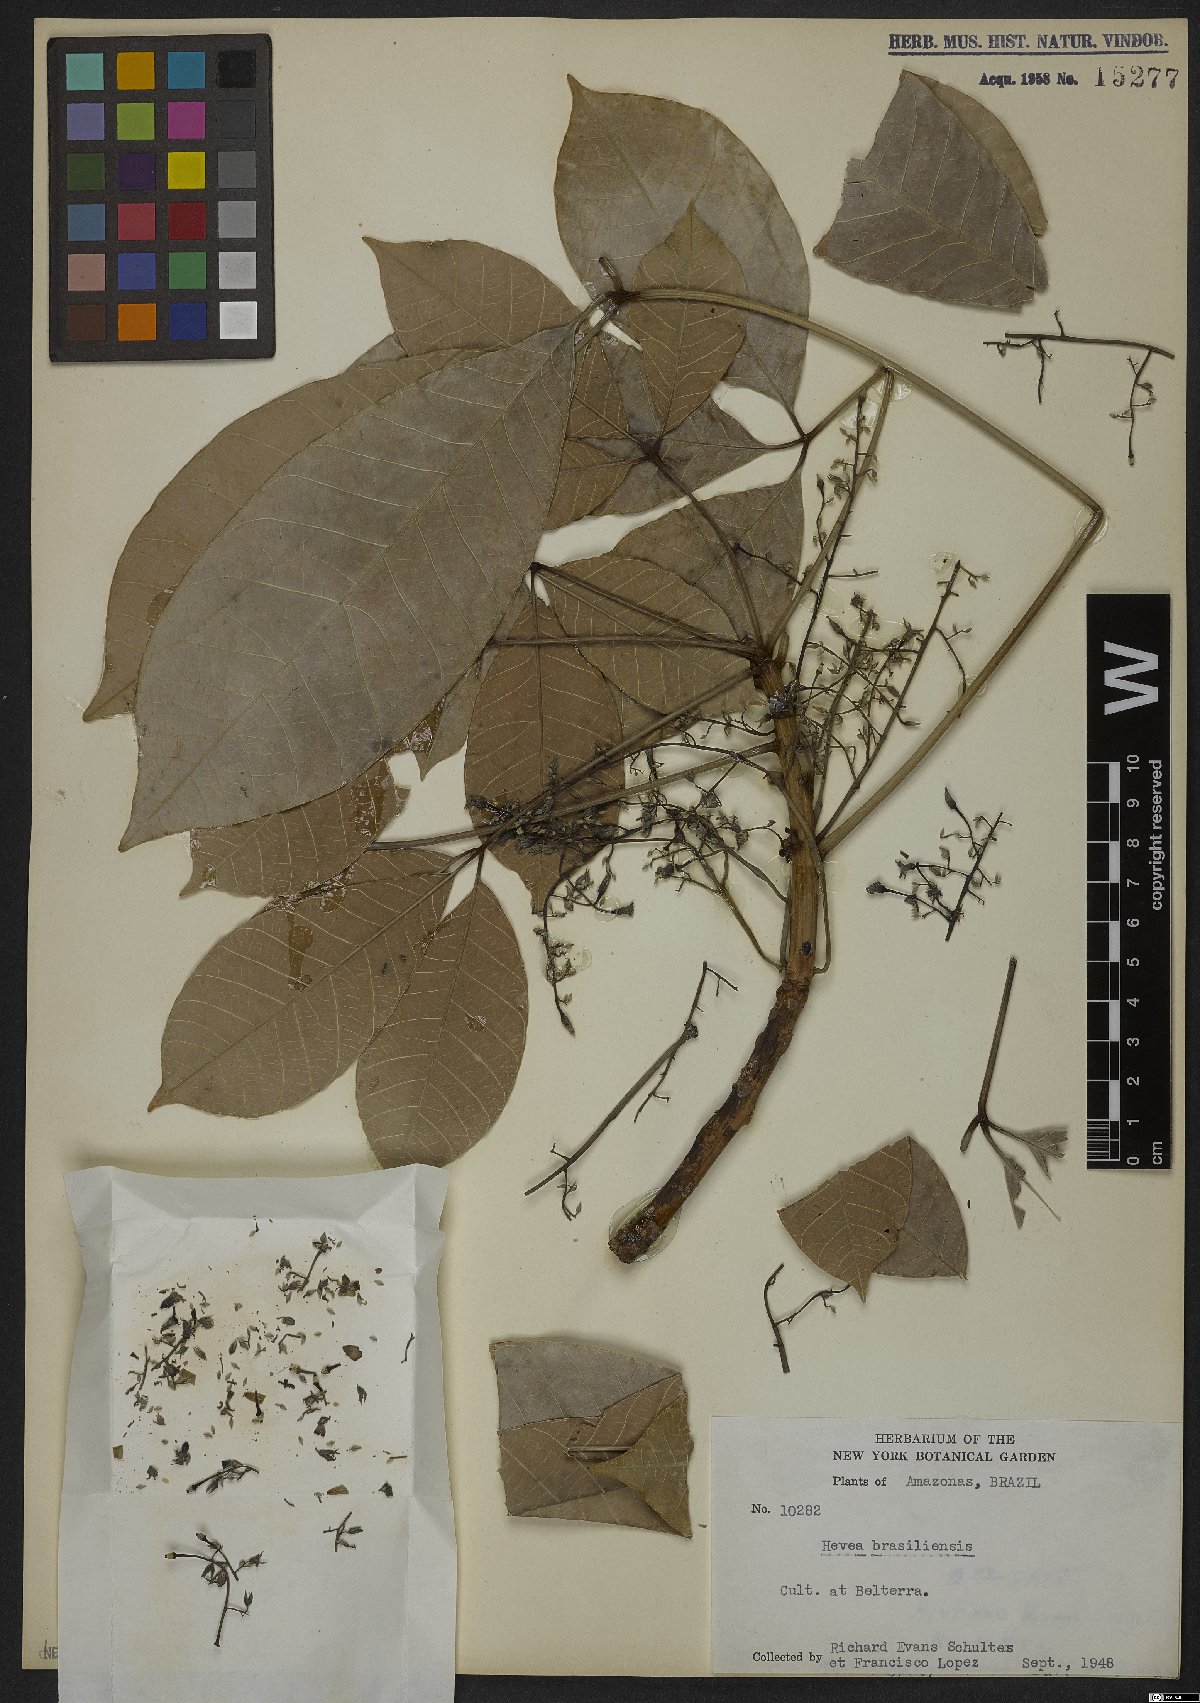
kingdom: Plantae
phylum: Tracheophyta
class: Magnoliopsida
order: Malpighiales
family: Euphorbiaceae
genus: Hevea
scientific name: Hevea brasiliensis
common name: Natural rubber
